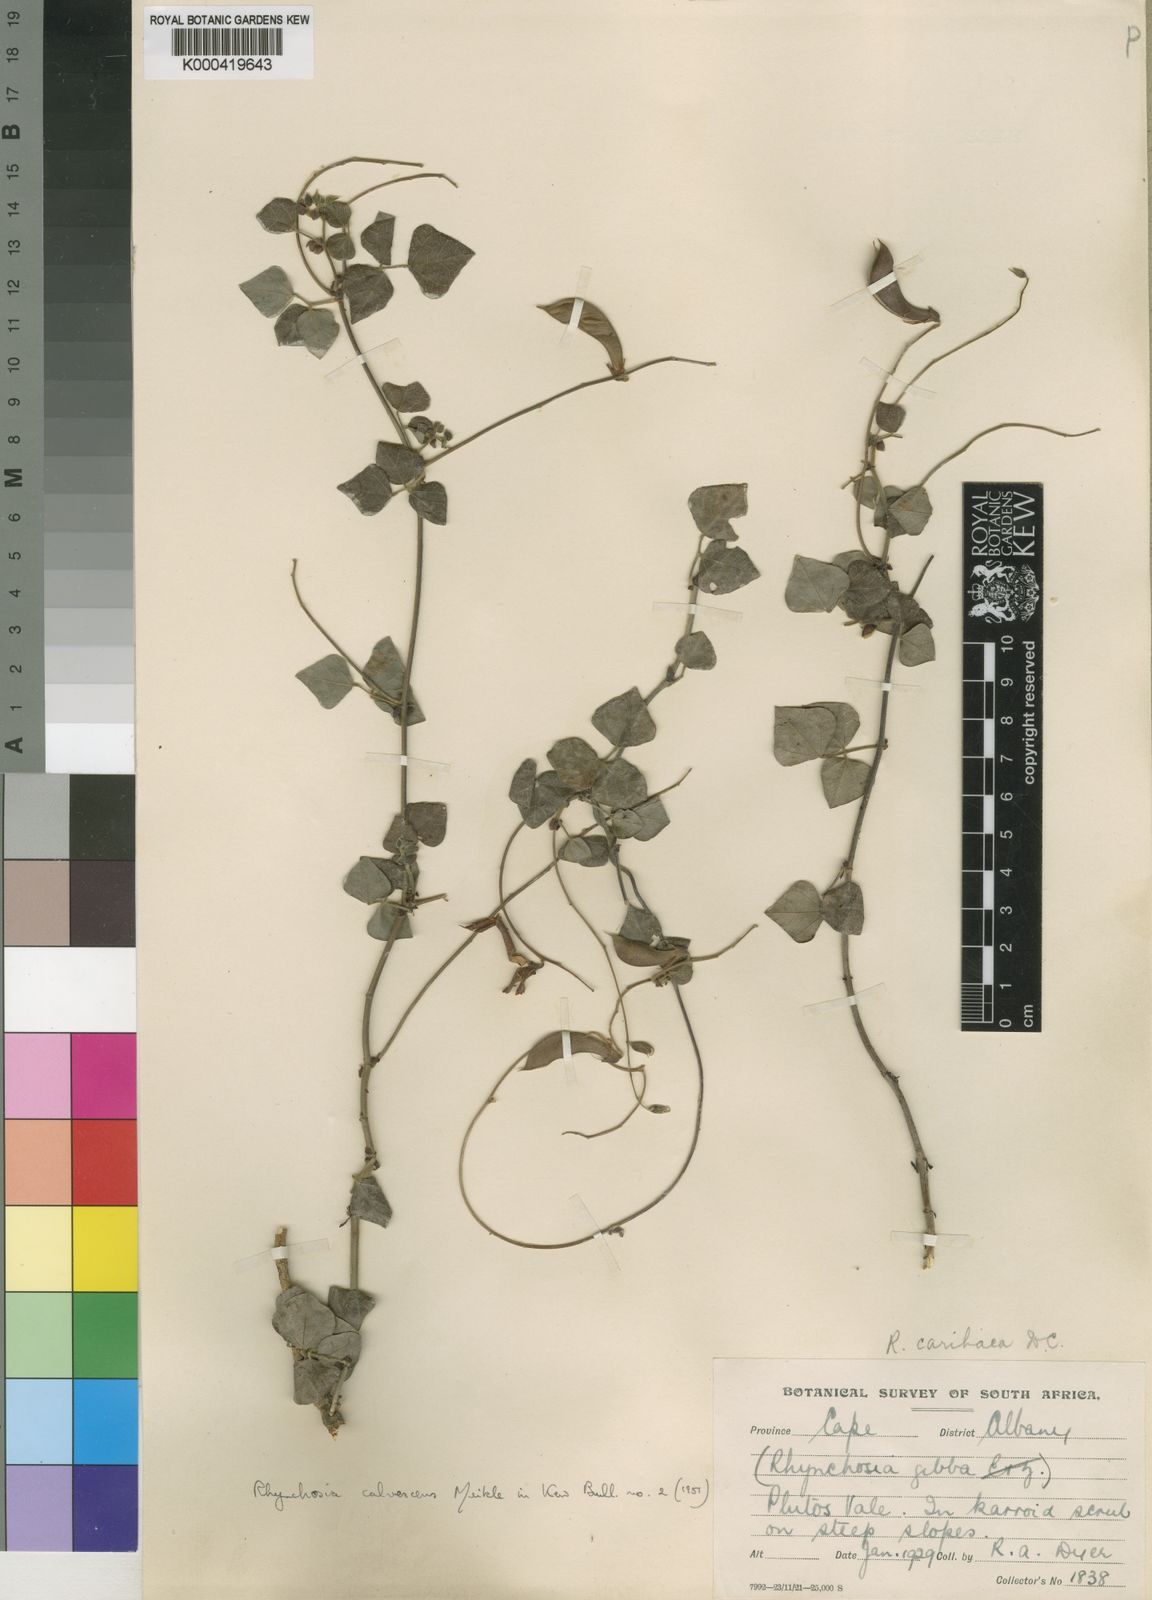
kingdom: Plantae
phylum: Tracheophyta
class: Magnoliopsida
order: Fabales
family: Fabaceae
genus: Rhynchosia
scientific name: Rhynchosia caribaea
